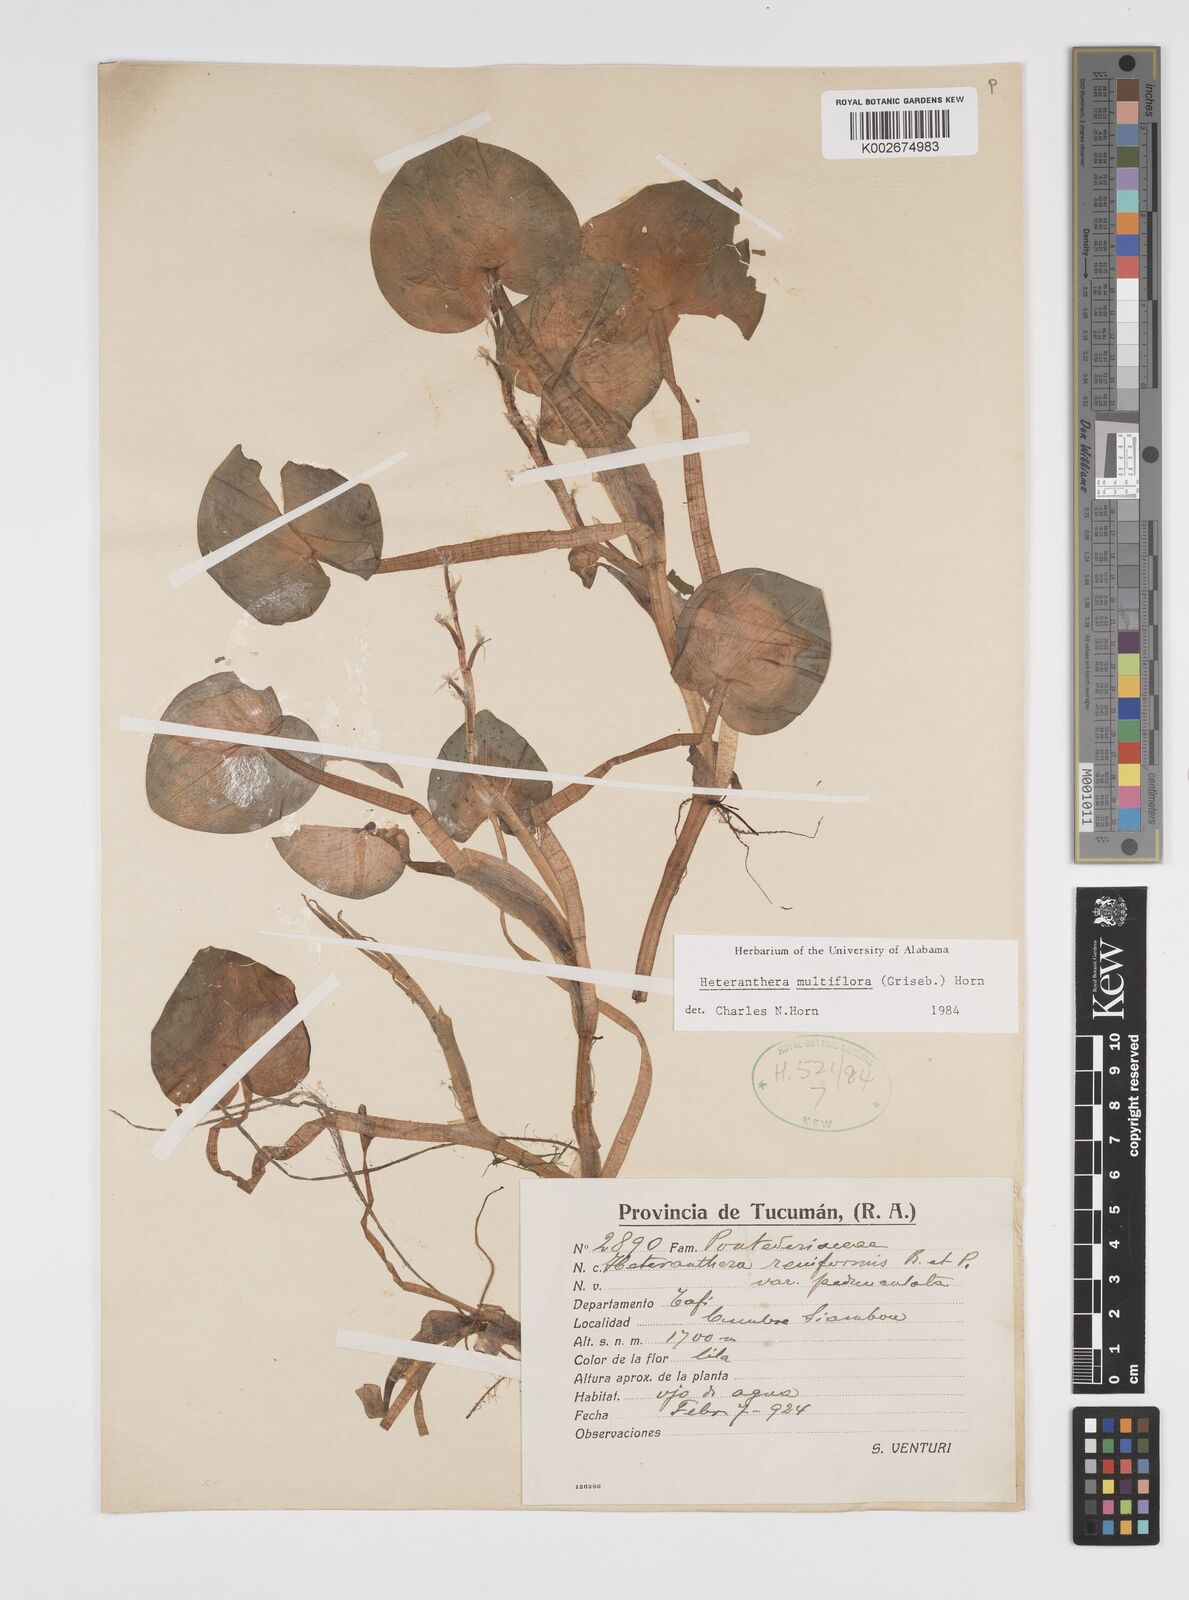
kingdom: Plantae
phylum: Tracheophyta
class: Liliopsida
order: Commelinales
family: Pontederiaceae
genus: Heteranthera
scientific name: Heteranthera multiflora
